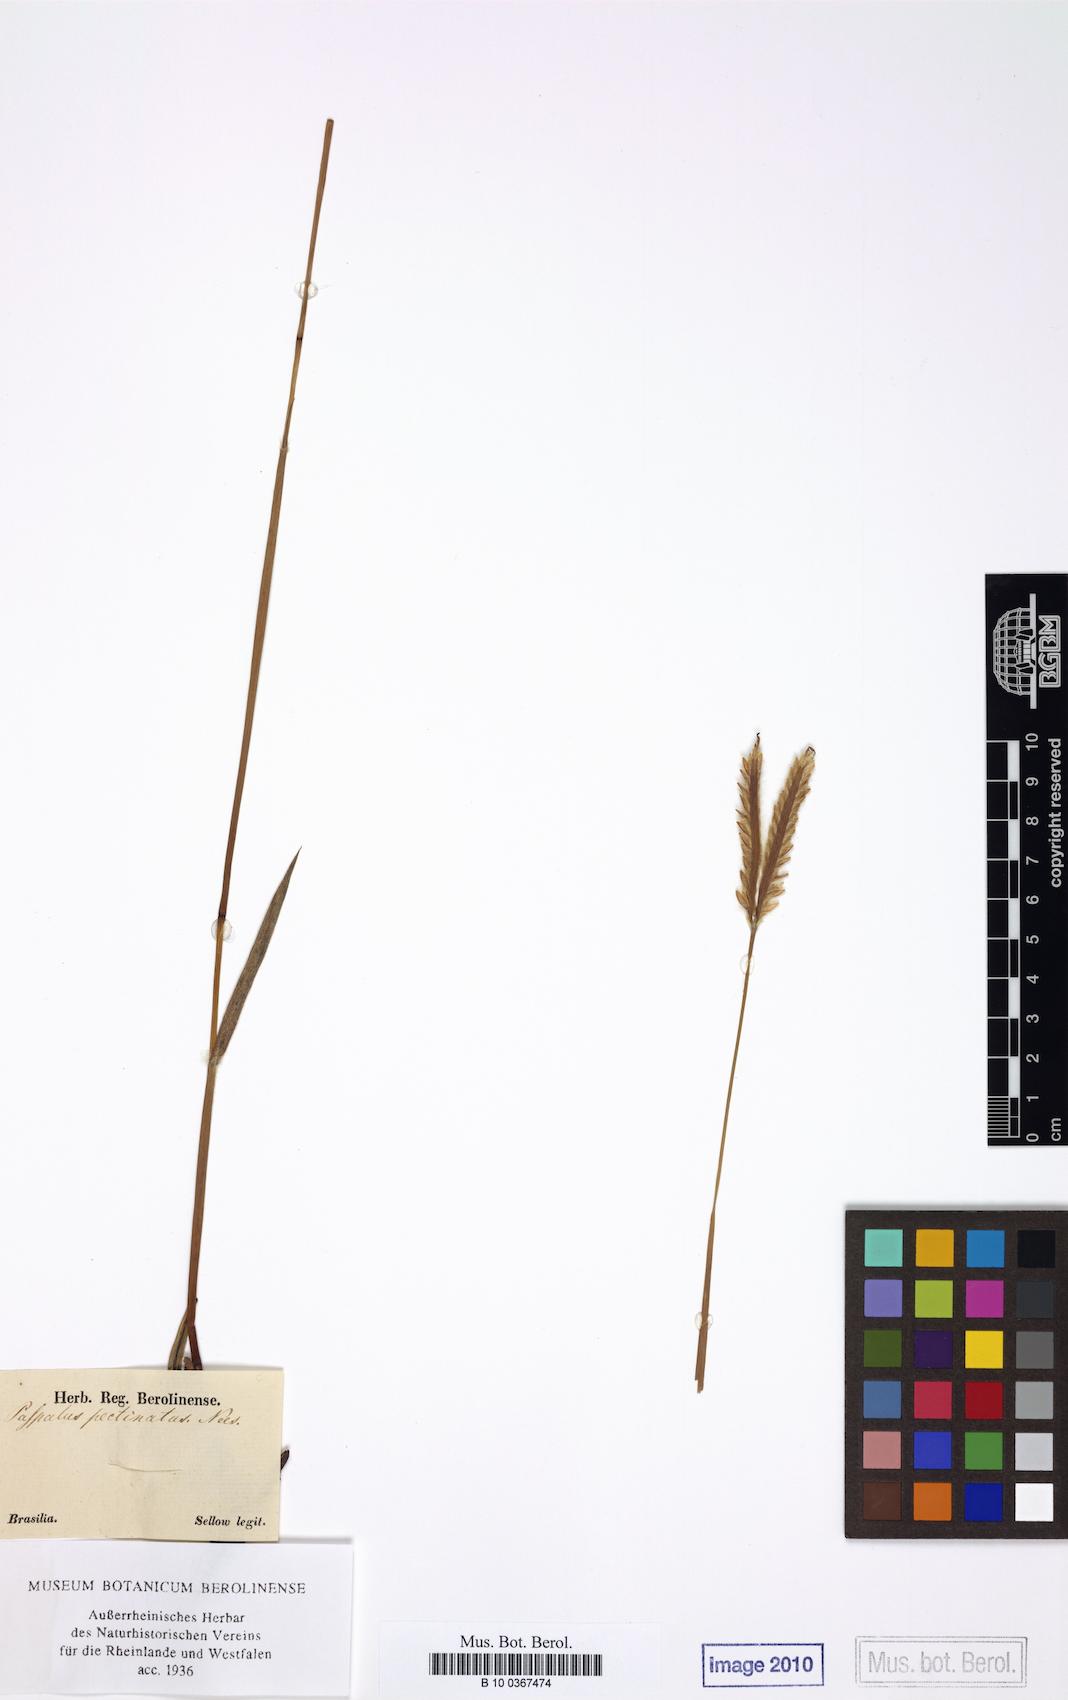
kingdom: Plantae
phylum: Tracheophyta
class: Liliopsida
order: Poales
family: Poaceae
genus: Paspalum
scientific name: Paspalum pectinatum
